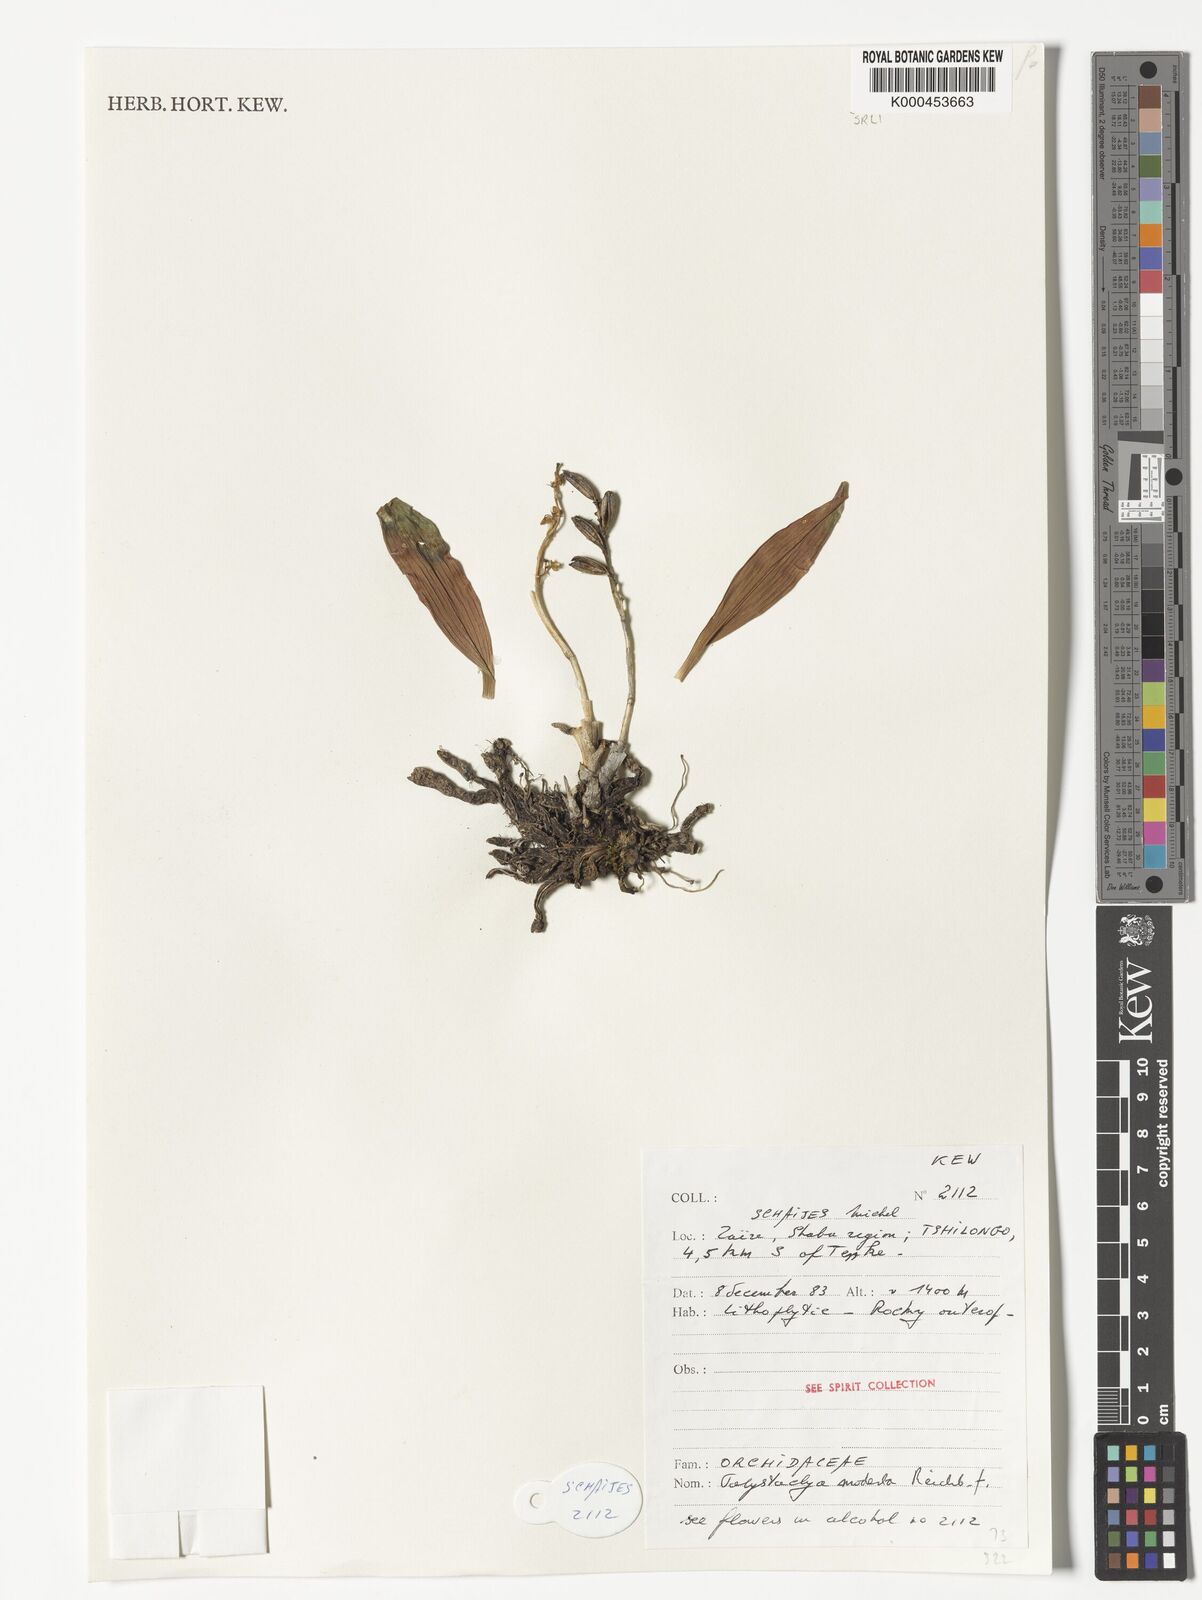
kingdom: Plantae
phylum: Tracheophyta
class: Liliopsida
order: Asparagales
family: Orchidaceae
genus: Polystachya
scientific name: Polystachya modesta
